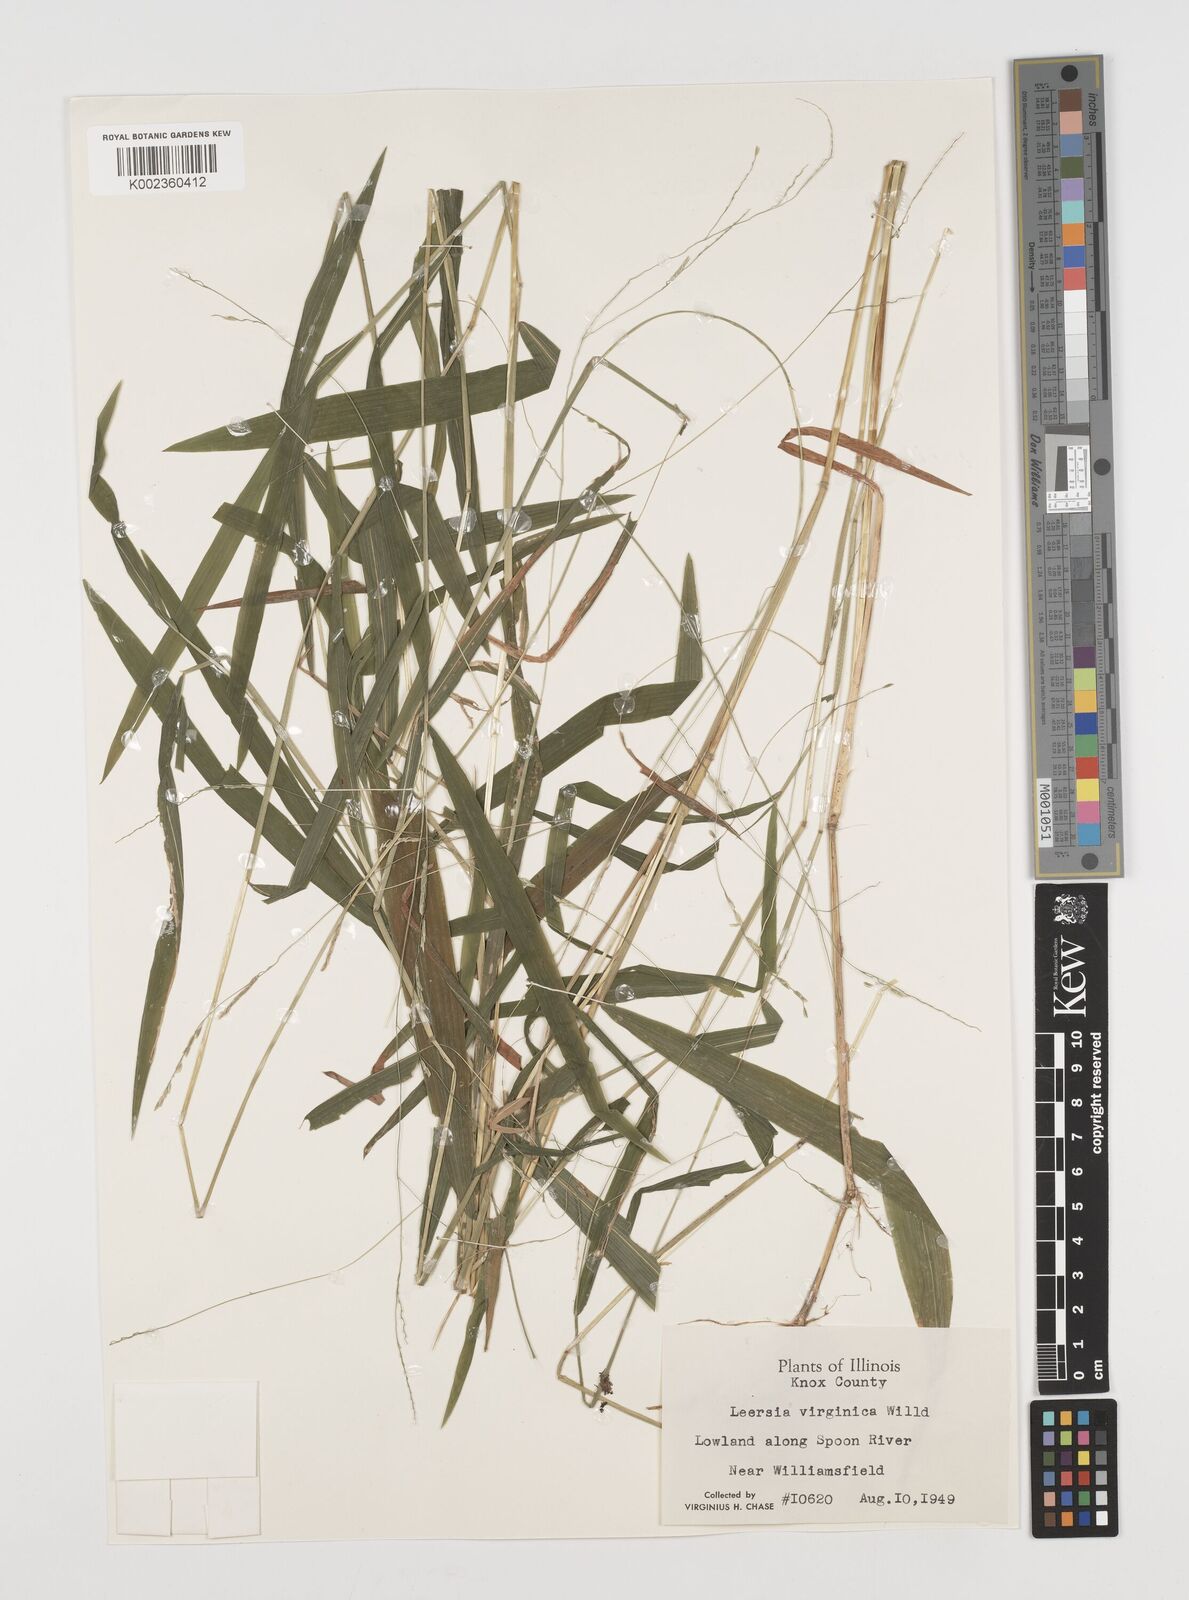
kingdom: Plantae
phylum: Tracheophyta
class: Liliopsida
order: Poales
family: Poaceae
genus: Leersia
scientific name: Leersia virginica
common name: White cutgrass
